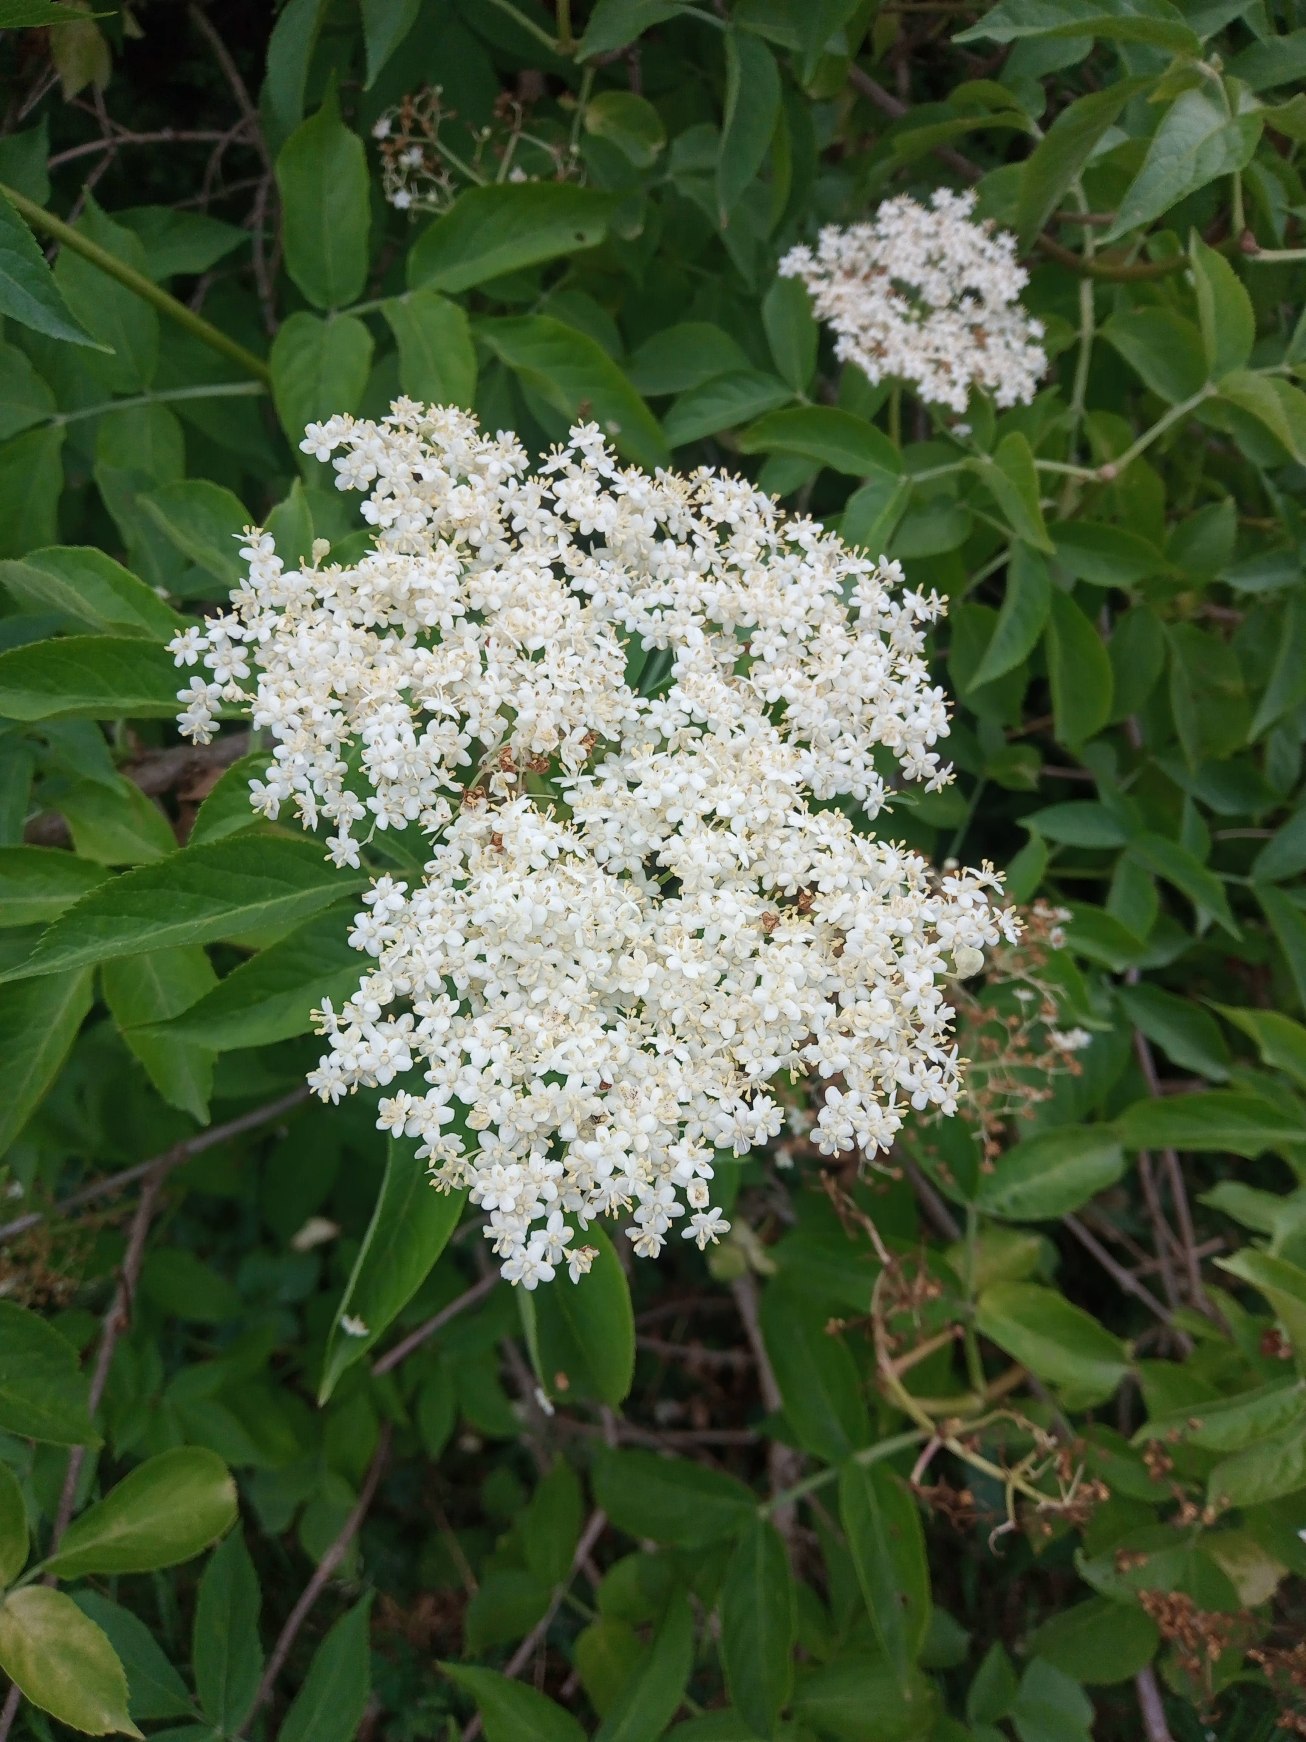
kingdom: Plantae
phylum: Tracheophyta
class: Magnoliopsida
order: Dipsacales
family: Viburnaceae
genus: Sambucus
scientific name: Sambucus nigra
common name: Almindelig hyld
